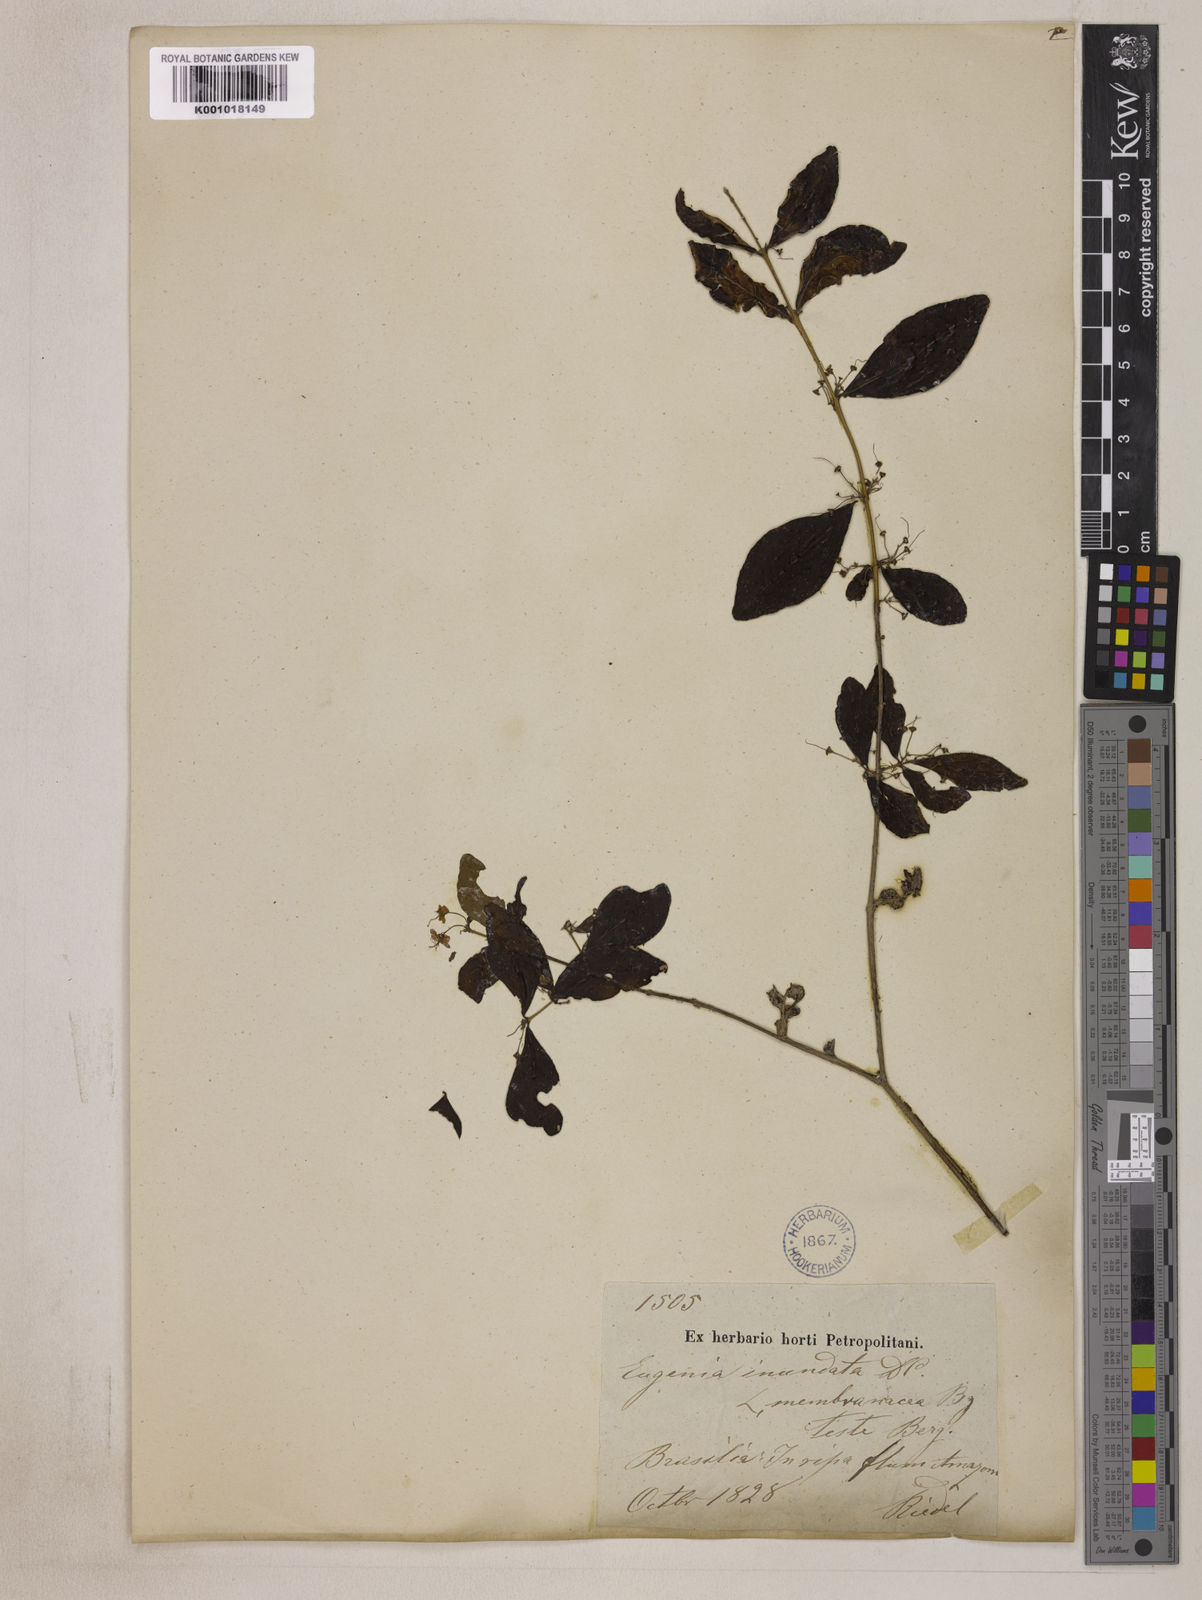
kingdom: Plantae
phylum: Tracheophyta
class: Magnoliopsida
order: Myrtales
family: Myrtaceae
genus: Eugenia
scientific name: Eugenia inundata
